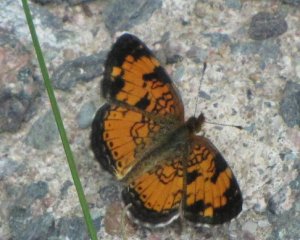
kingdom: Animalia
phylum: Arthropoda
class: Insecta
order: Lepidoptera
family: Nymphalidae
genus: Phyciodes
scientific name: Phyciodes tharos
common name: Northern Crescent
